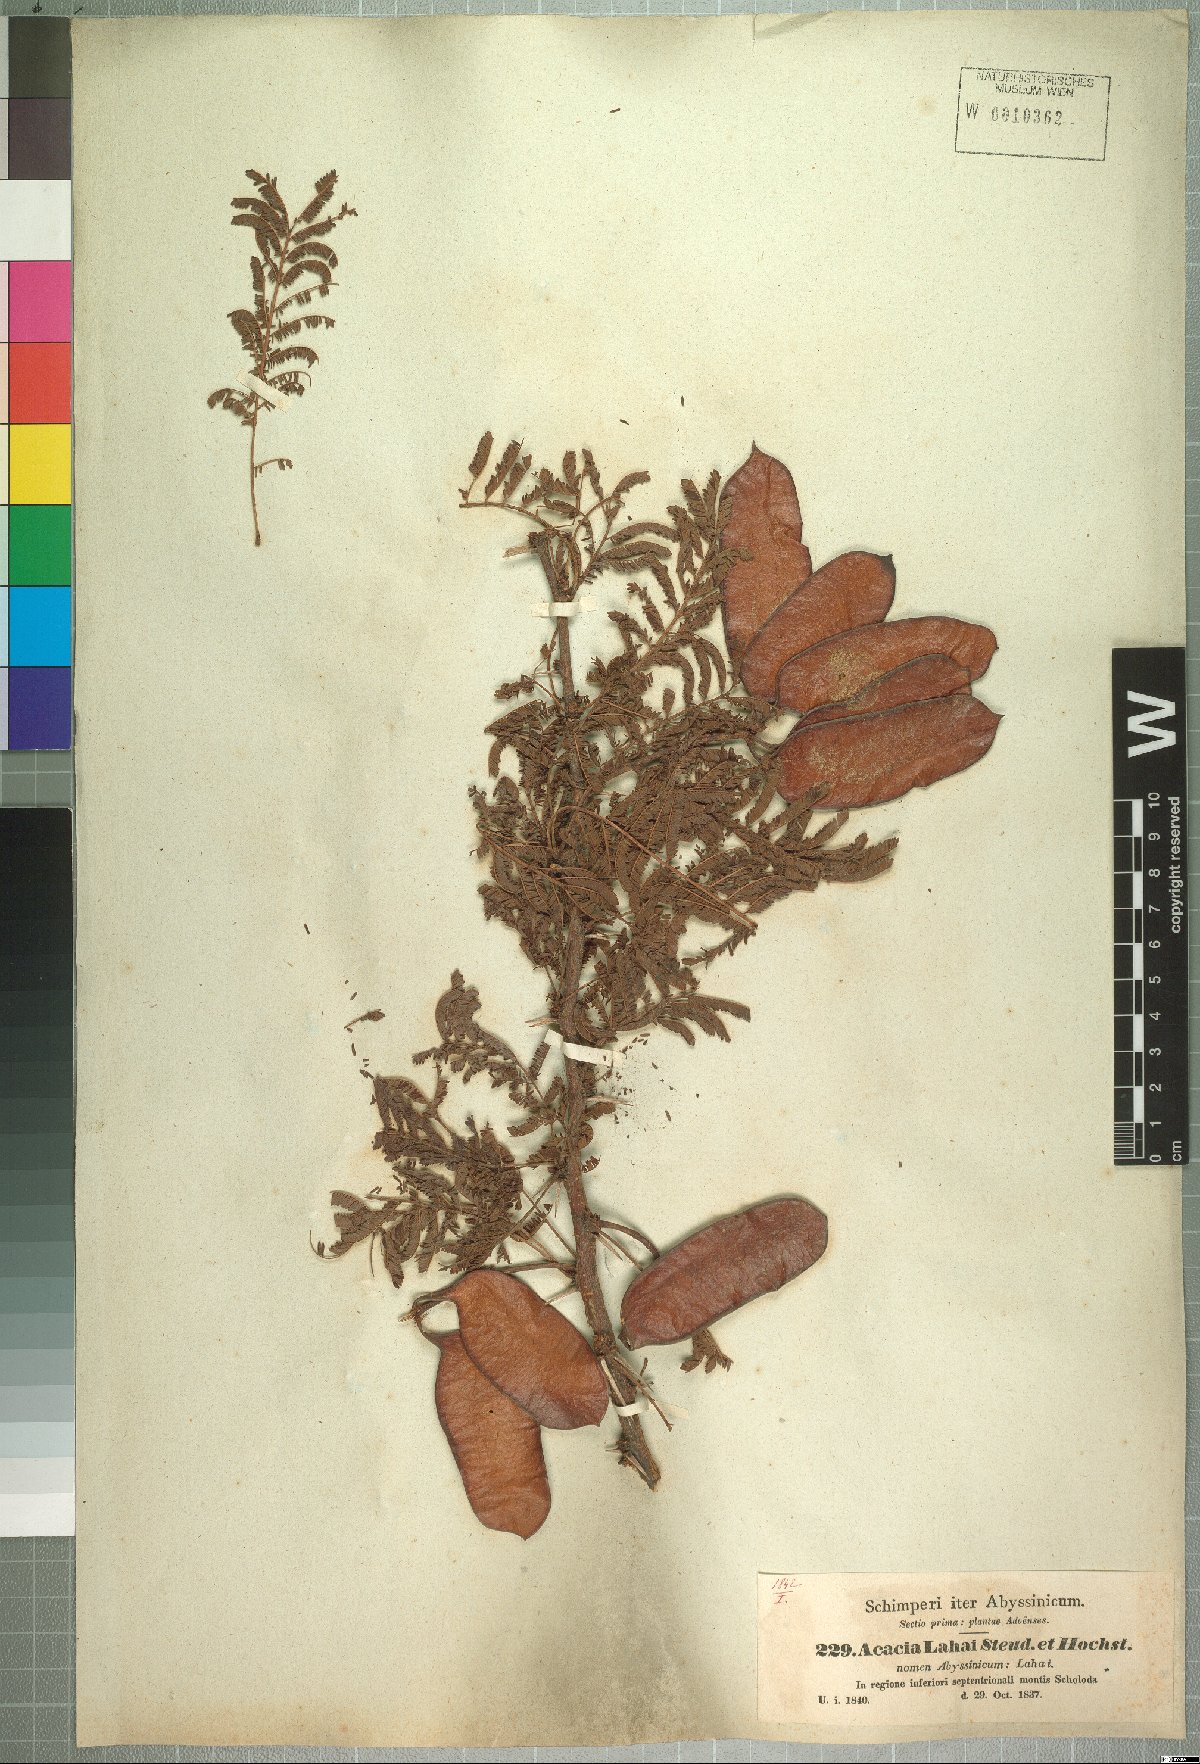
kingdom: Plantae
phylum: Tracheophyta
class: Magnoliopsida
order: Fabales
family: Fabaceae
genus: Vachellia
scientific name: Vachellia lahai
